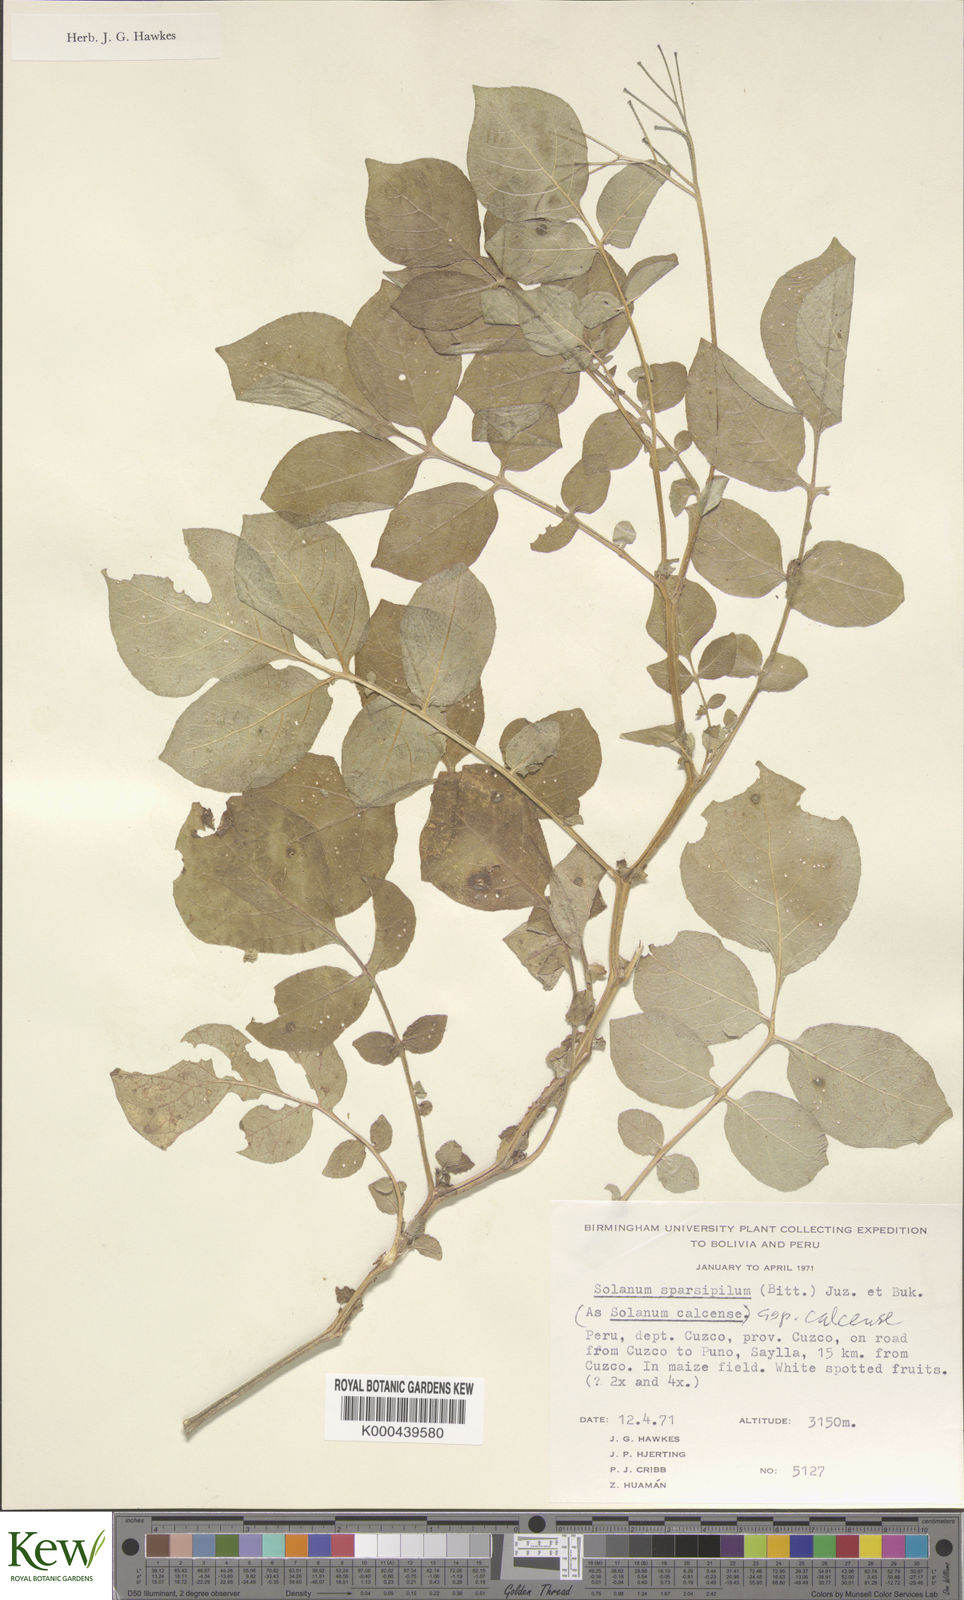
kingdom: Plantae
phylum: Tracheophyta
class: Magnoliopsida
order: Solanales
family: Solanaceae
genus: Solanum
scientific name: Solanum brevicaule
